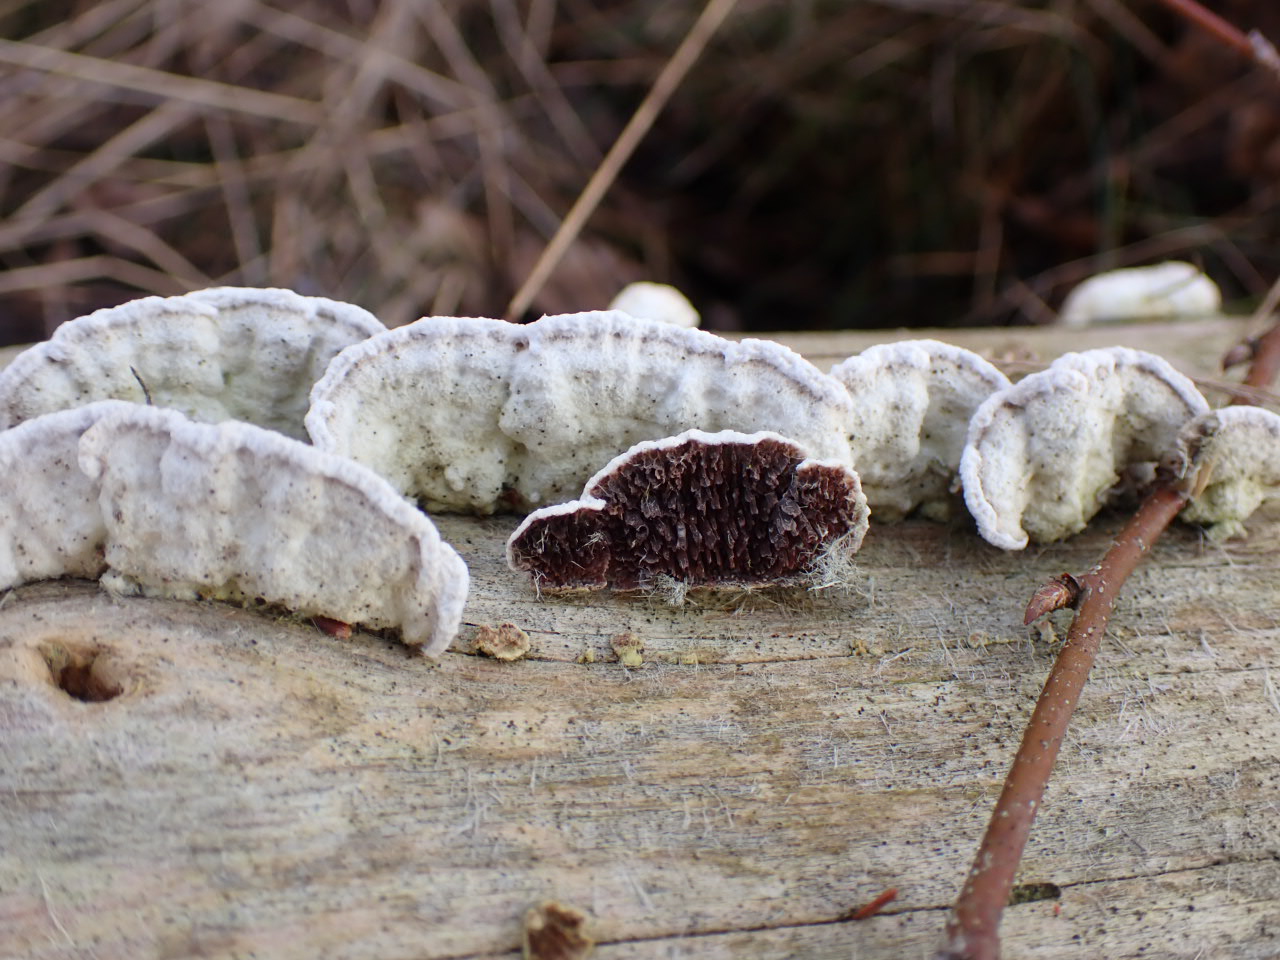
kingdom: Fungi
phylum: Basidiomycota
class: Agaricomycetes
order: Hymenochaetales
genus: Trichaptum
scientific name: Trichaptum fuscoviolaceum
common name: tandet violporesvamp
